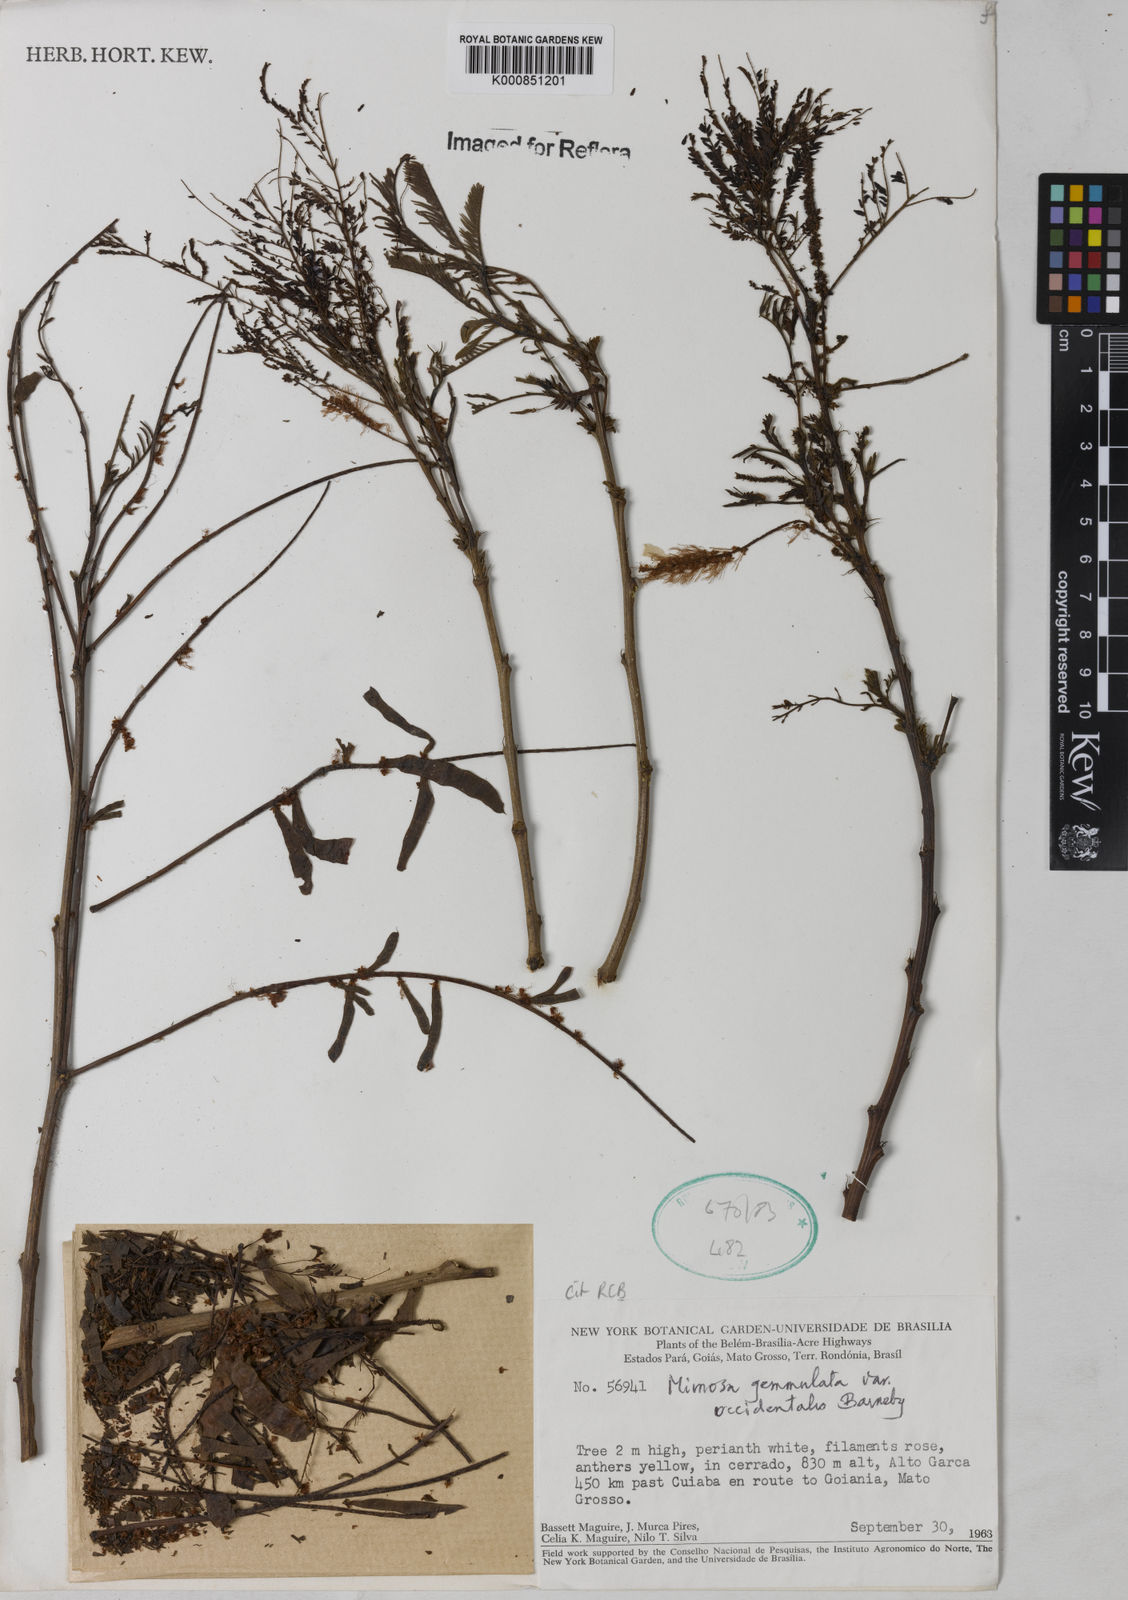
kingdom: Plantae
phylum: Tracheophyta
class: Magnoliopsida
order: Fabales
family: Fabaceae
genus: Mimosa
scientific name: Mimosa caccavariana
